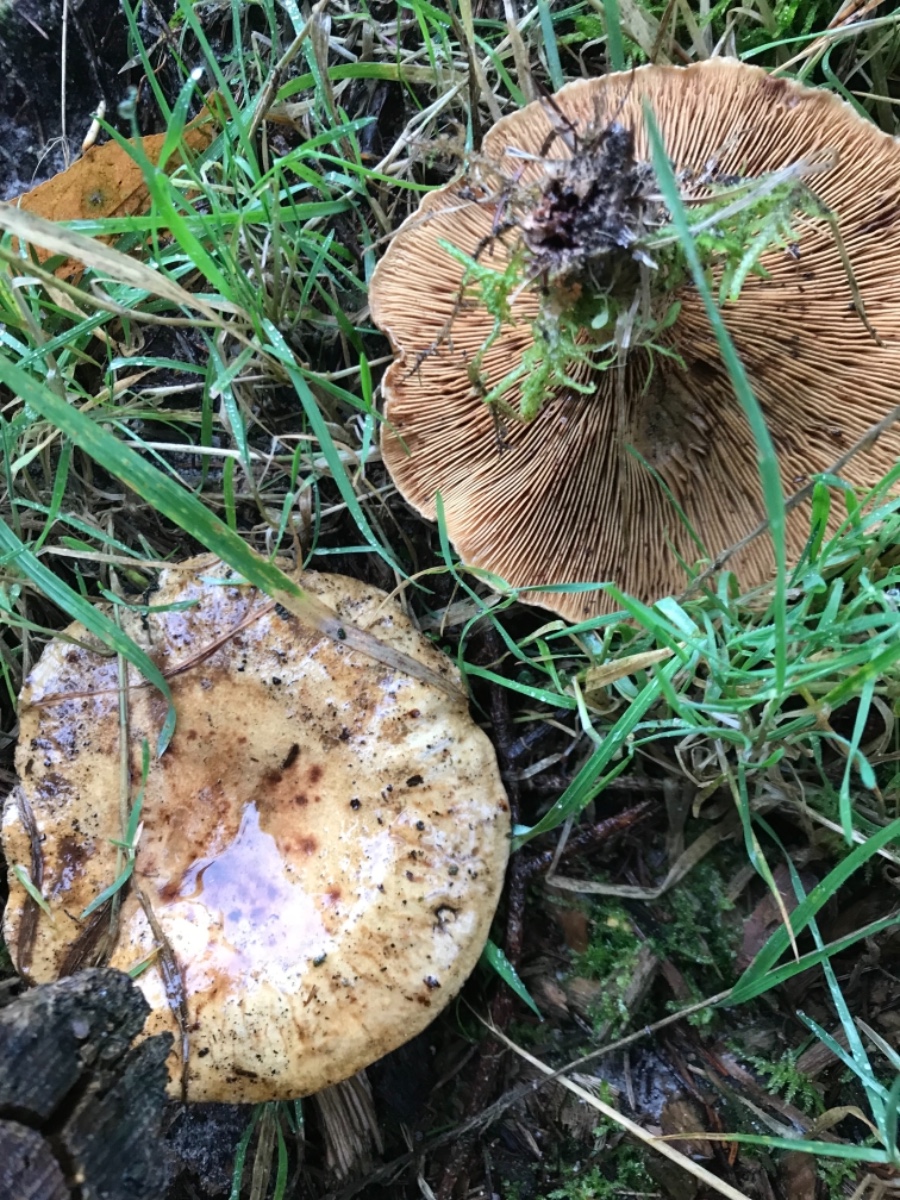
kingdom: Fungi
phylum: Basidiomycota
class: Agaricomycetes
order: Boletales
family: Paxillaceae
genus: Paxillus
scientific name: Paxillus
